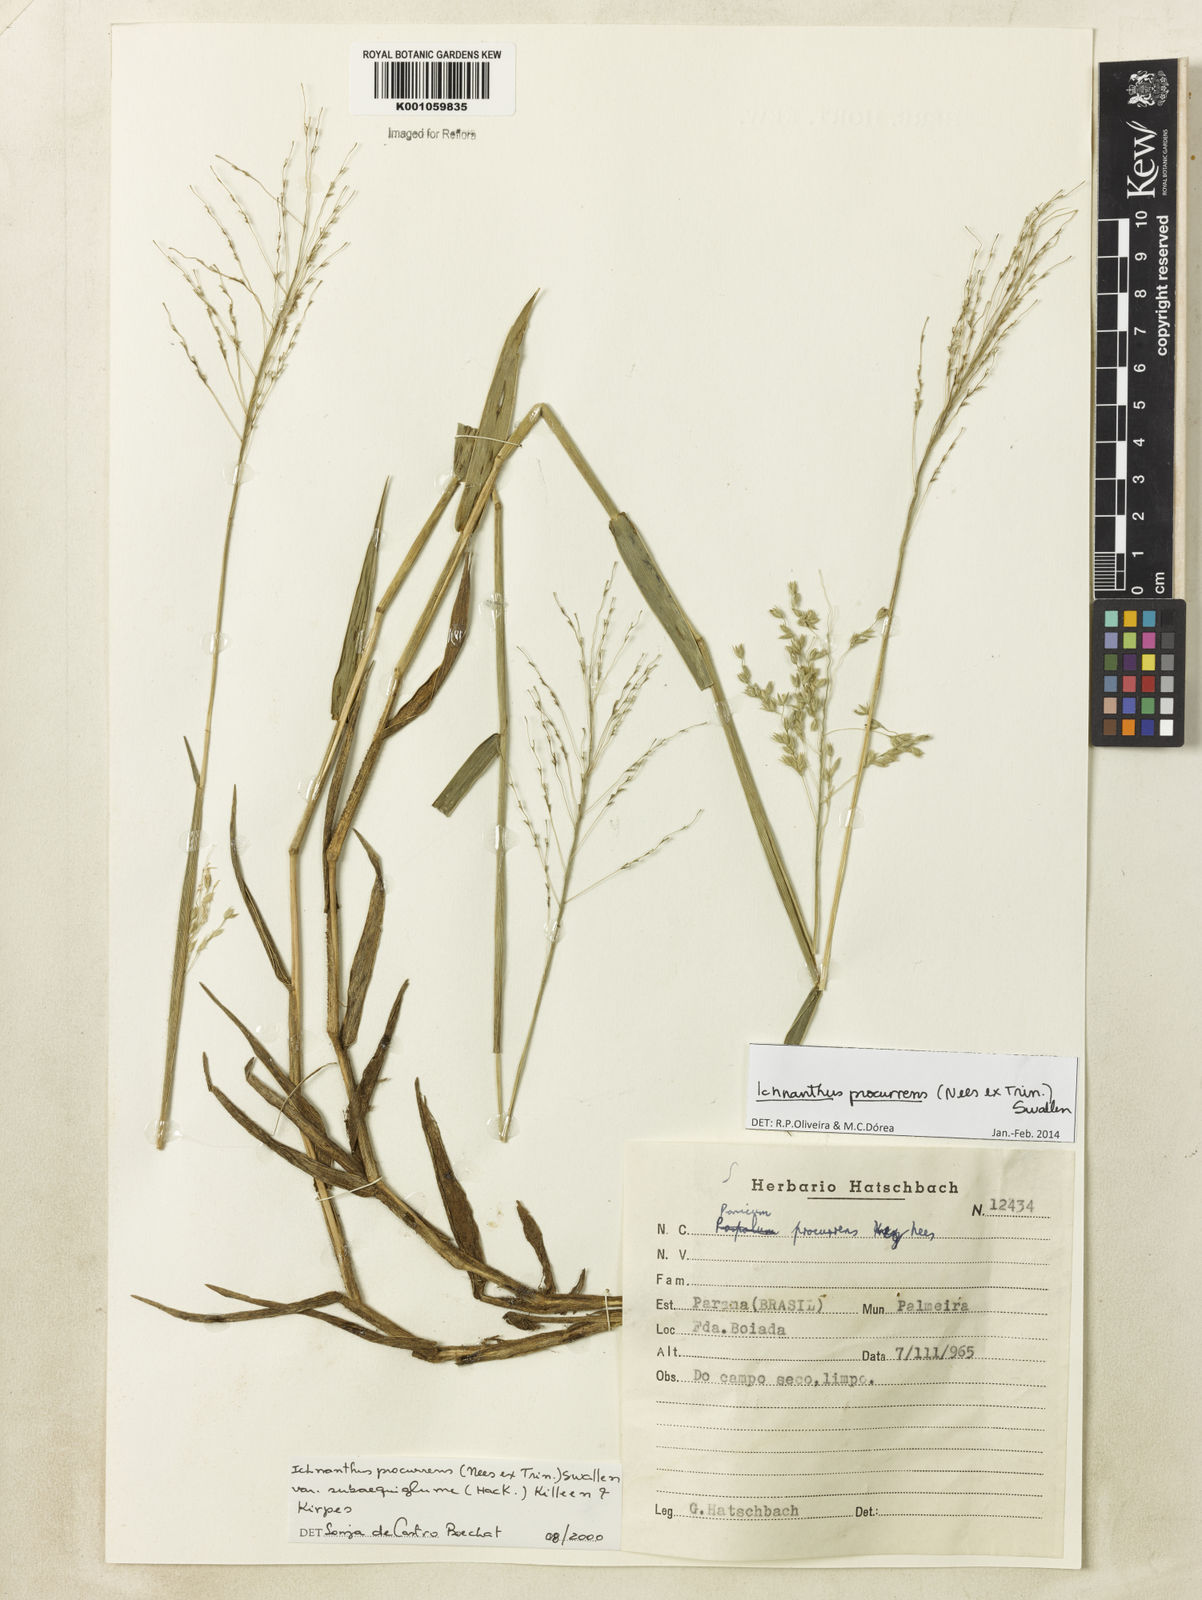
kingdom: Plantae
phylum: Tracheophyta
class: Liliopsida
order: Poales
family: Poaceae
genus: Oedochloa
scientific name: Oedochloa procurrens
